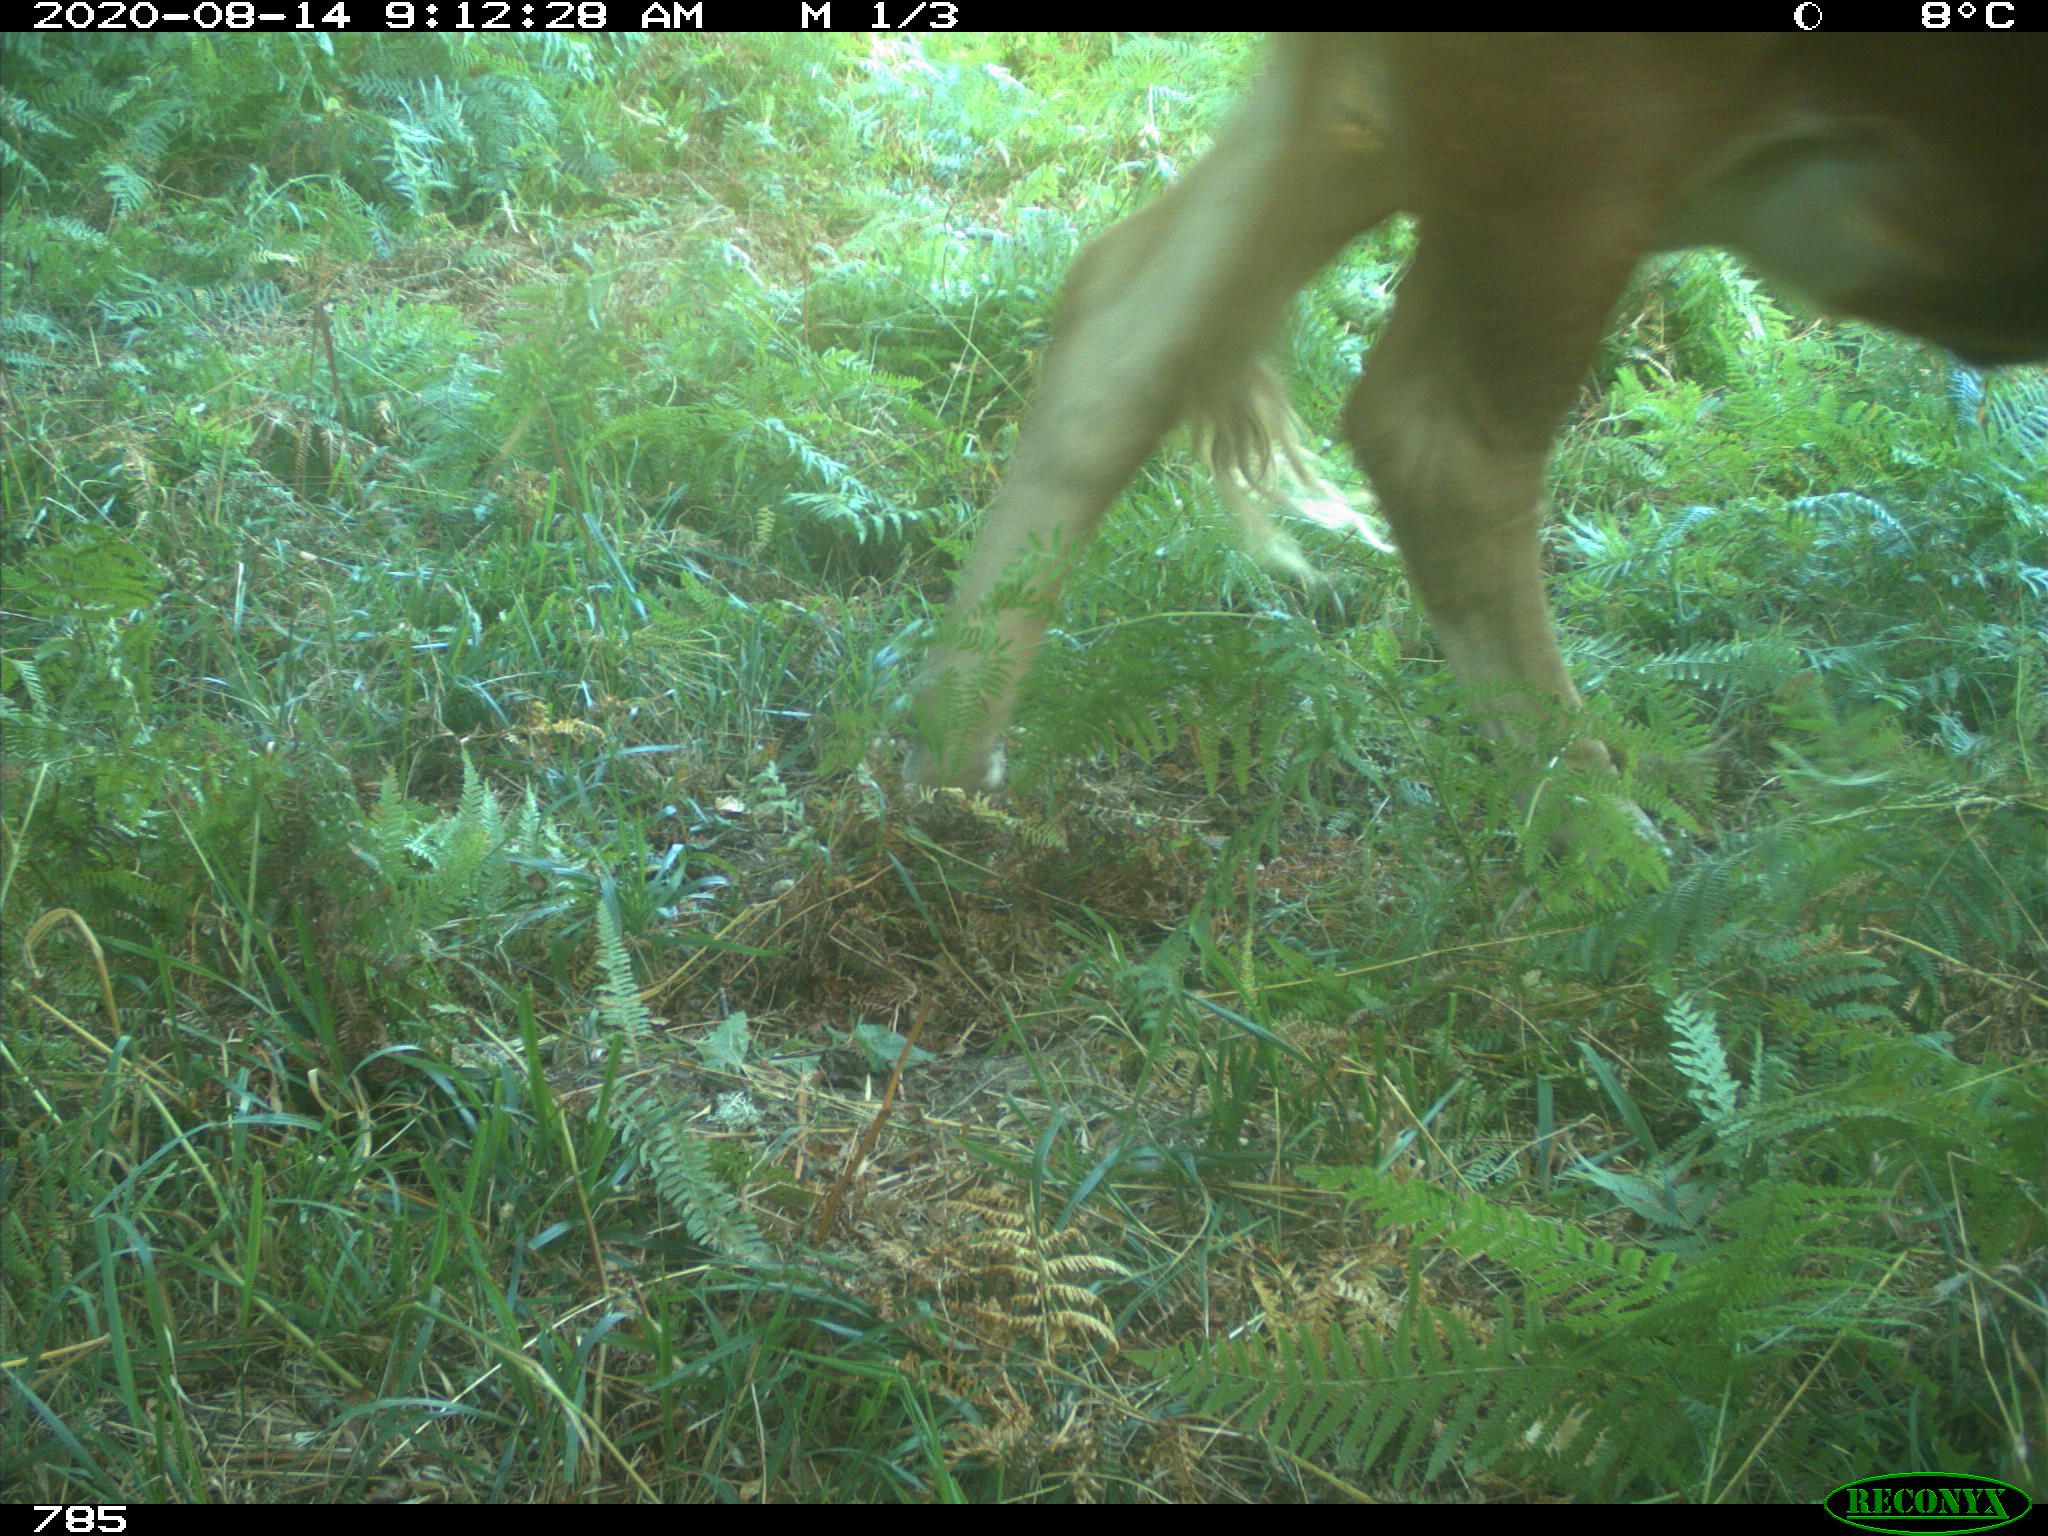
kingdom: Animalia
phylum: Chordata
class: Mammalia
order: Artiodactyla
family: Bovidae
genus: Bos
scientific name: Bos taurus
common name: Domesticated cattle
